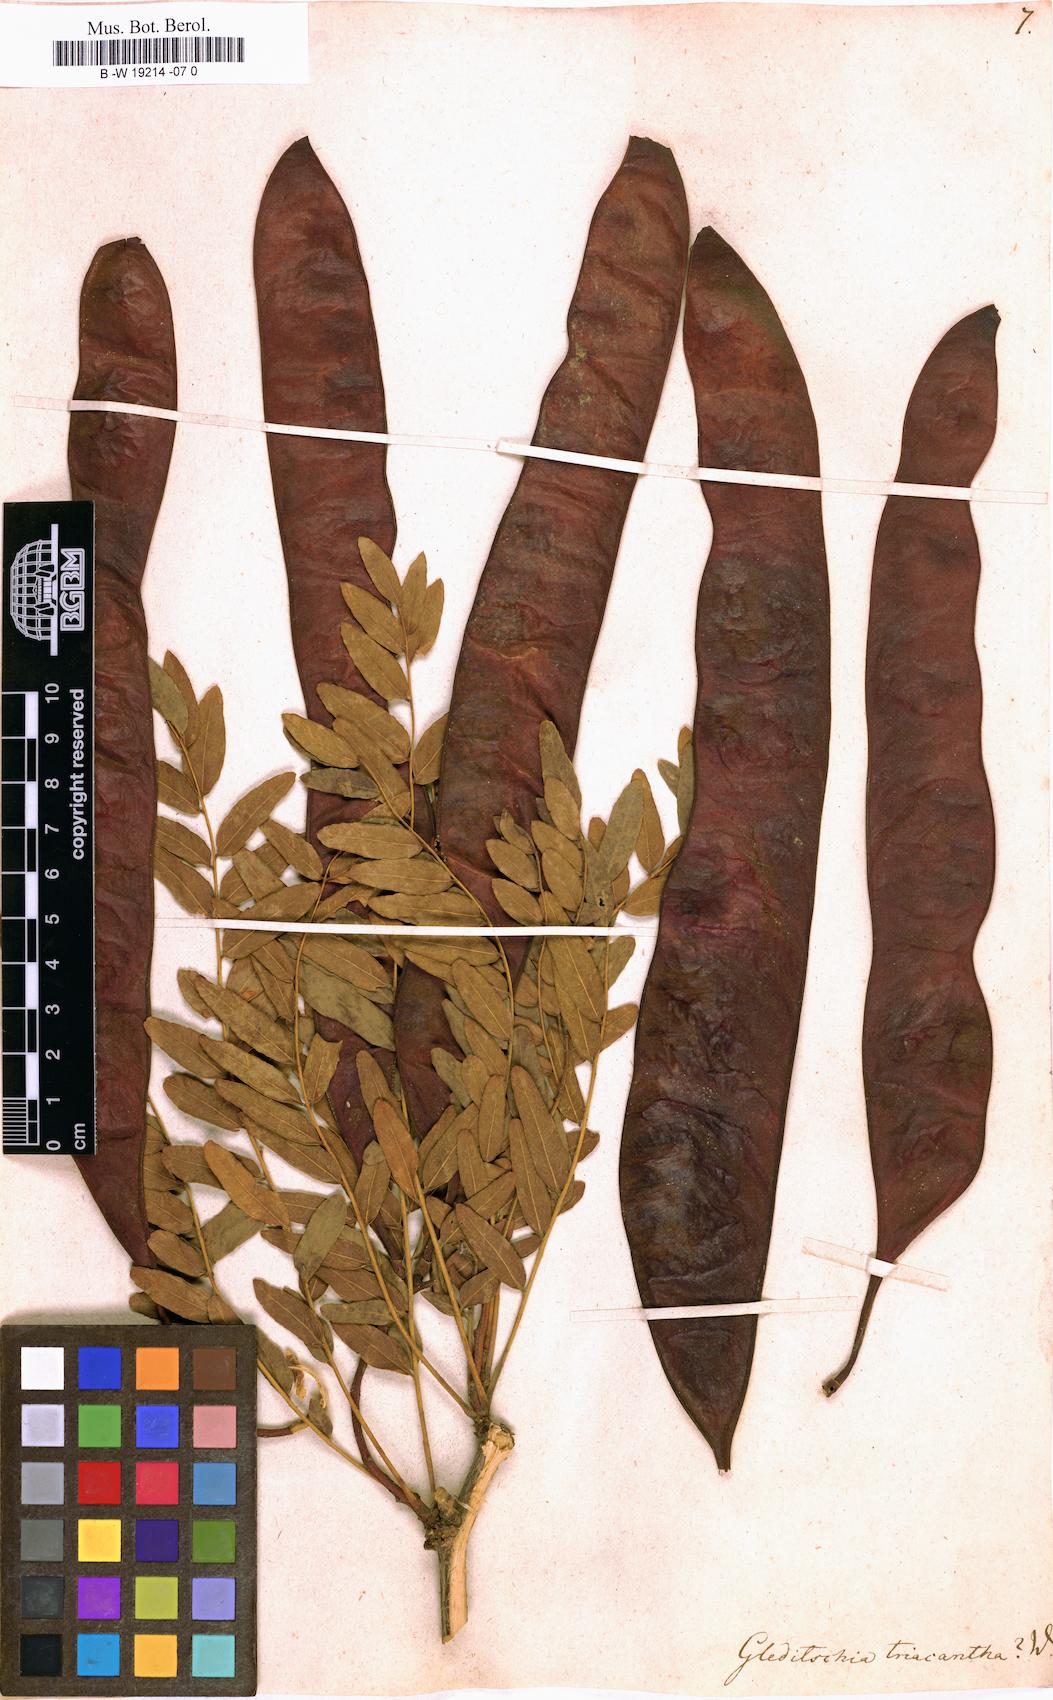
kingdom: Plantae
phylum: Tracheophyta
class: Magnoliopsida
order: Fabales
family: Fabaceae
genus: Gleditsia
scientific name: Gleditsia triacanthos
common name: Common honeylocust
